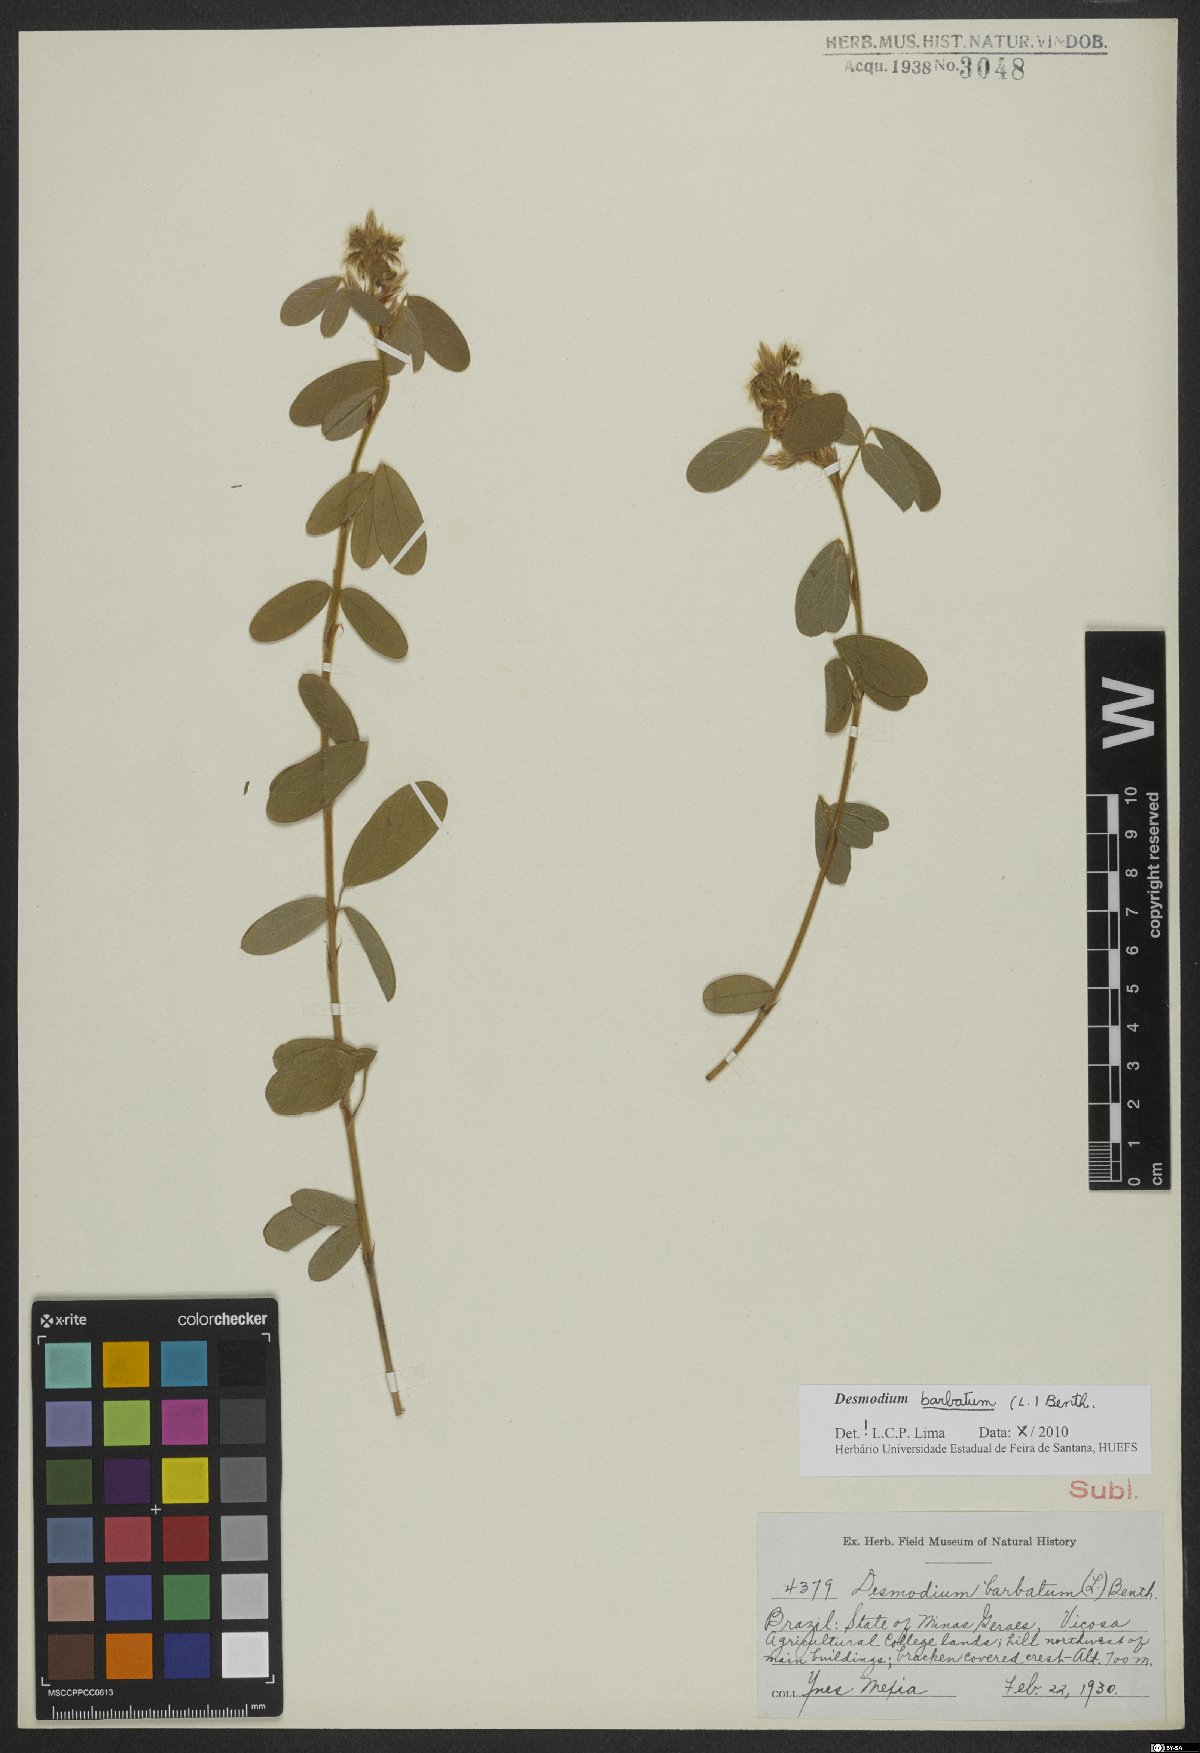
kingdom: Plantae
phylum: Tracheophyta
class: Magnoliopsida
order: Fabales
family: Fabaceae
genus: Grona
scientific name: Grona barbata
